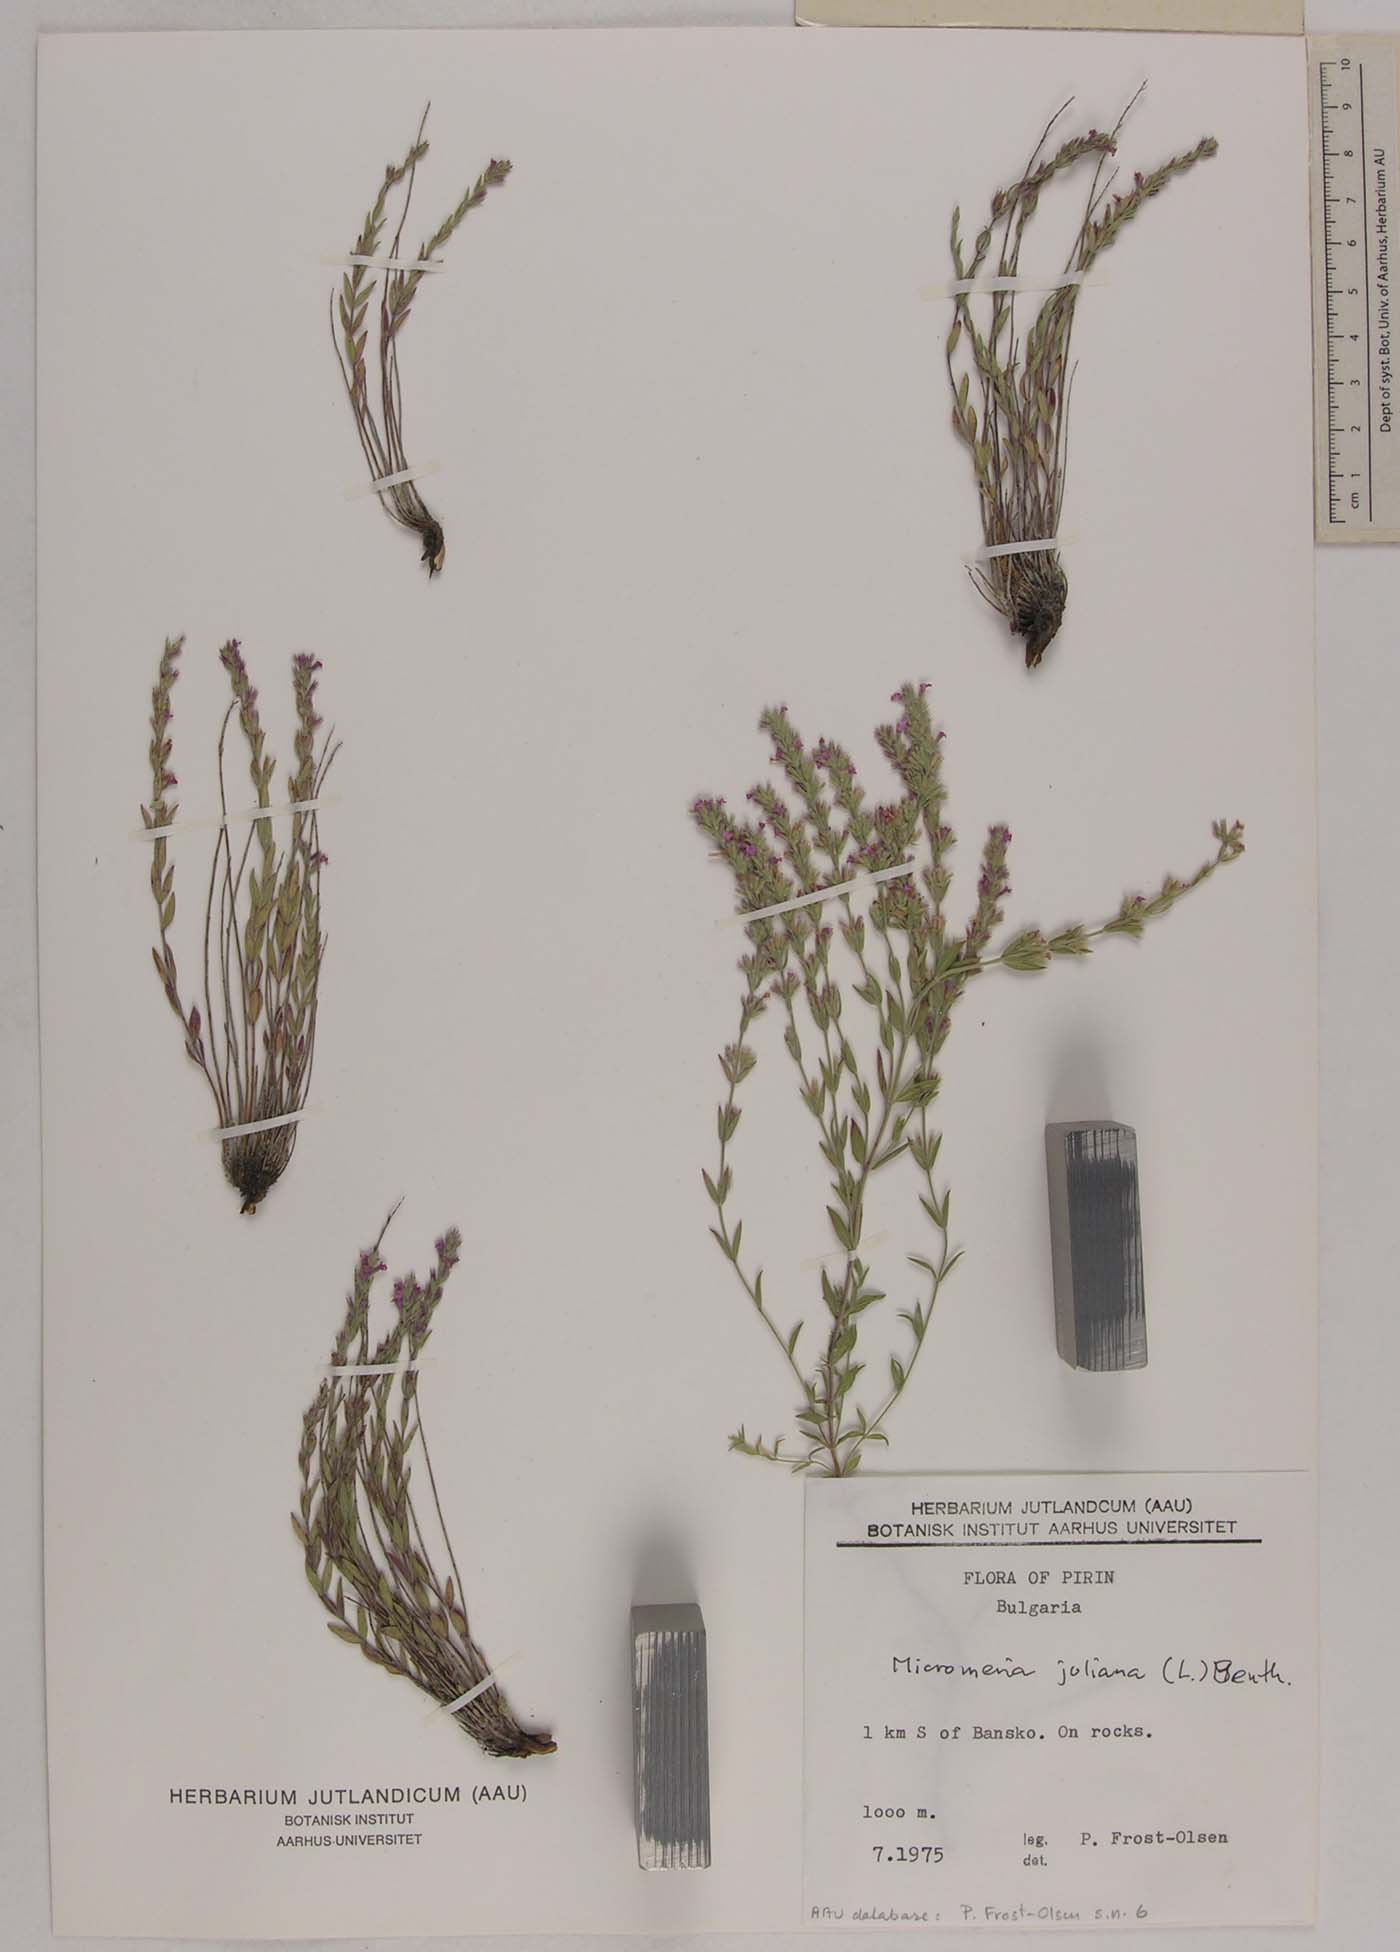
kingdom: Plantae
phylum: Tracheophyta
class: Magnoliopsida
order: Lamiales
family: Lamiaceae
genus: Micromeria
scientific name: Micromeria cristata
